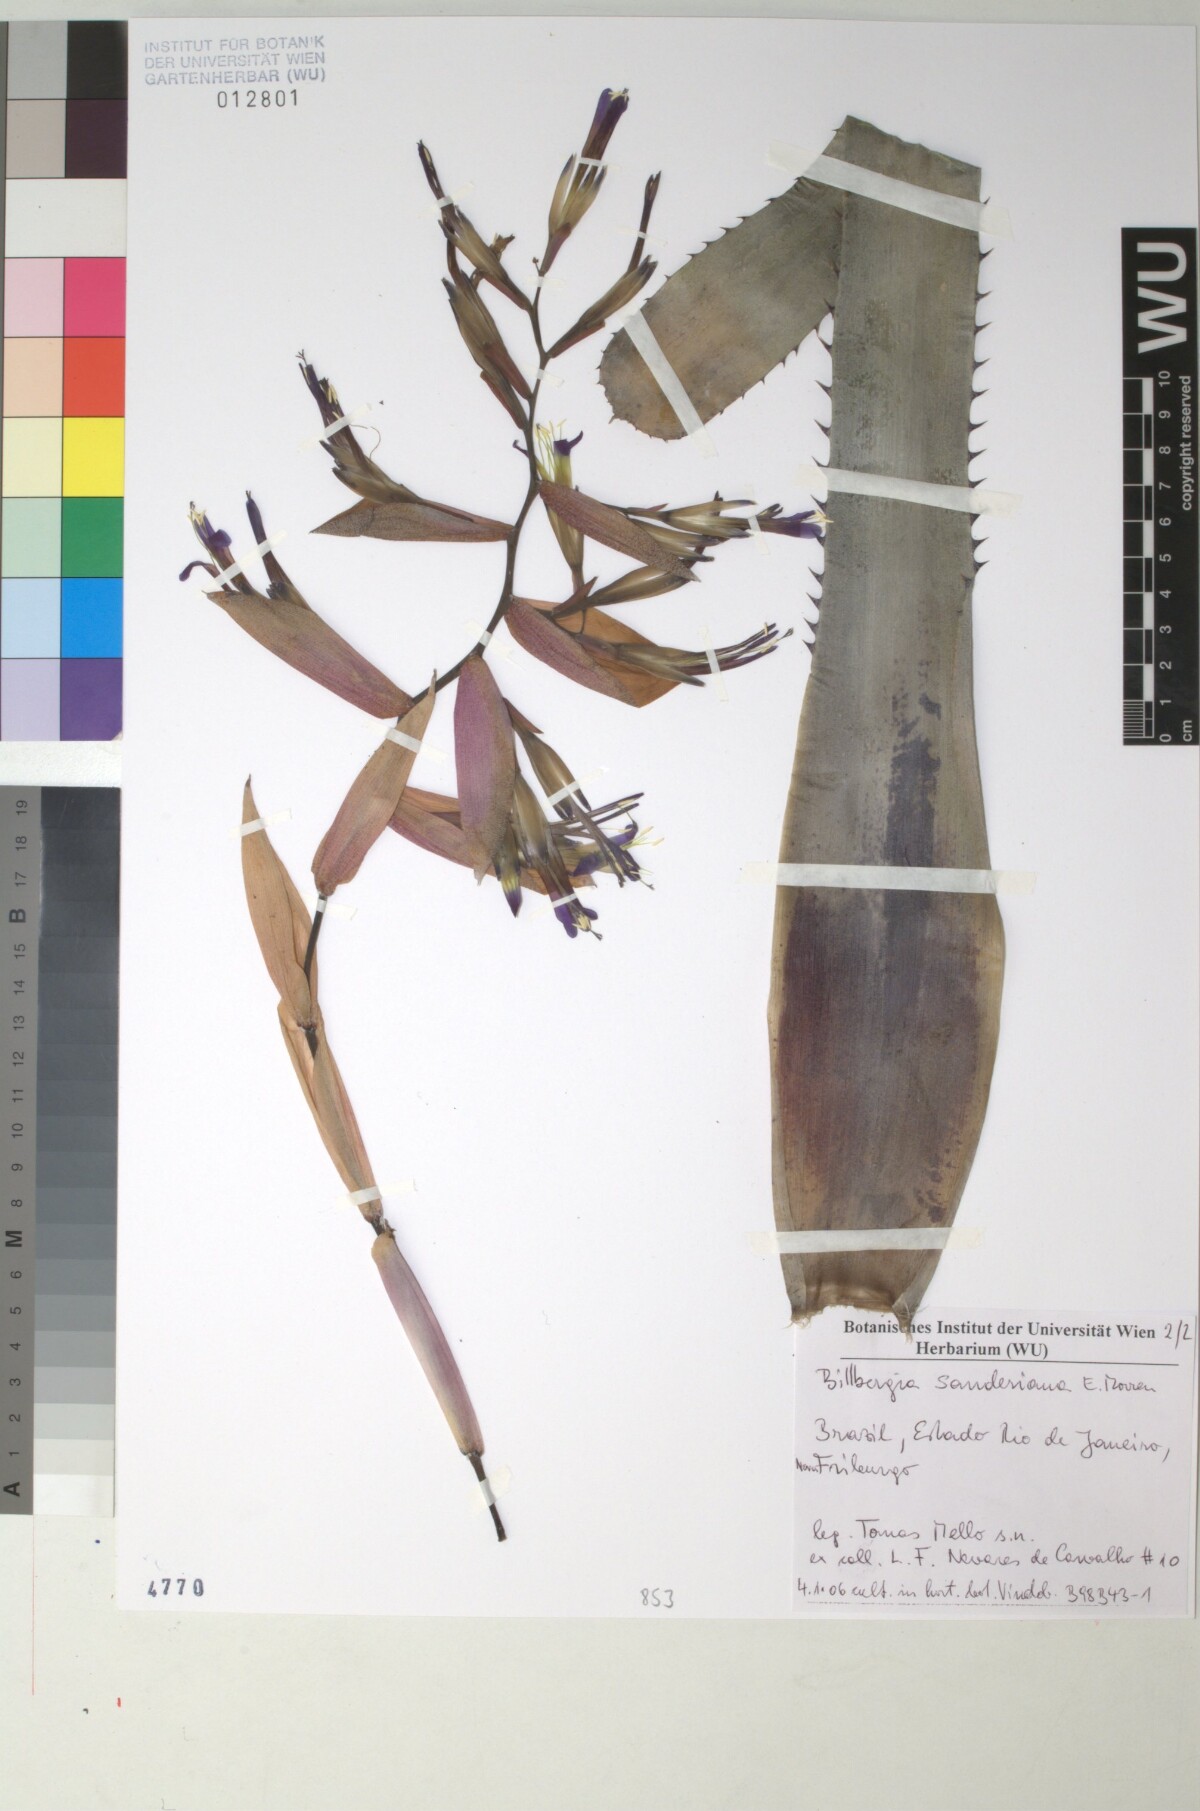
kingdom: Plantae
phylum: Tracheophyta
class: Liliopsida
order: Poales
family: Bromeliaceae
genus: Billbergia
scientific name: Billbergia sanderiana
